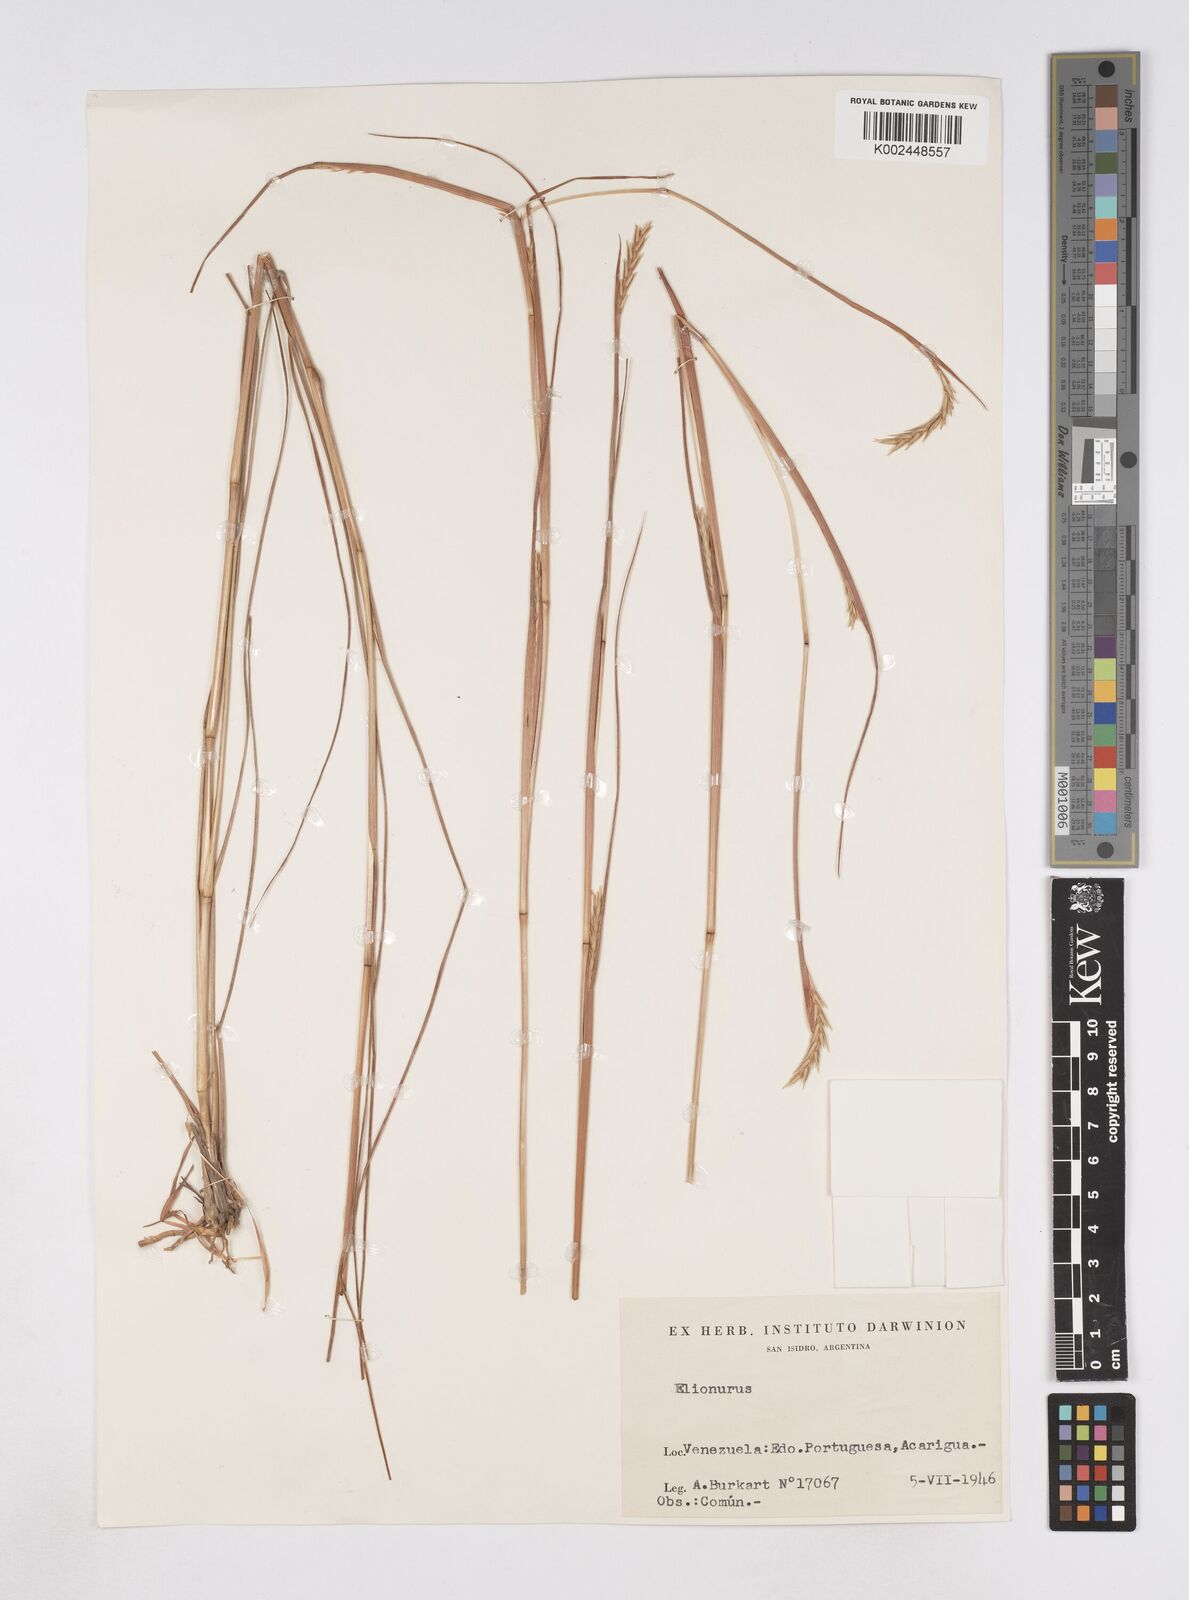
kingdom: Plantae
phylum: Tracheophyta
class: Liliopsida
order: Poales
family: Poaceae
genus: Elionurus
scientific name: Elionurus tripsacoides
